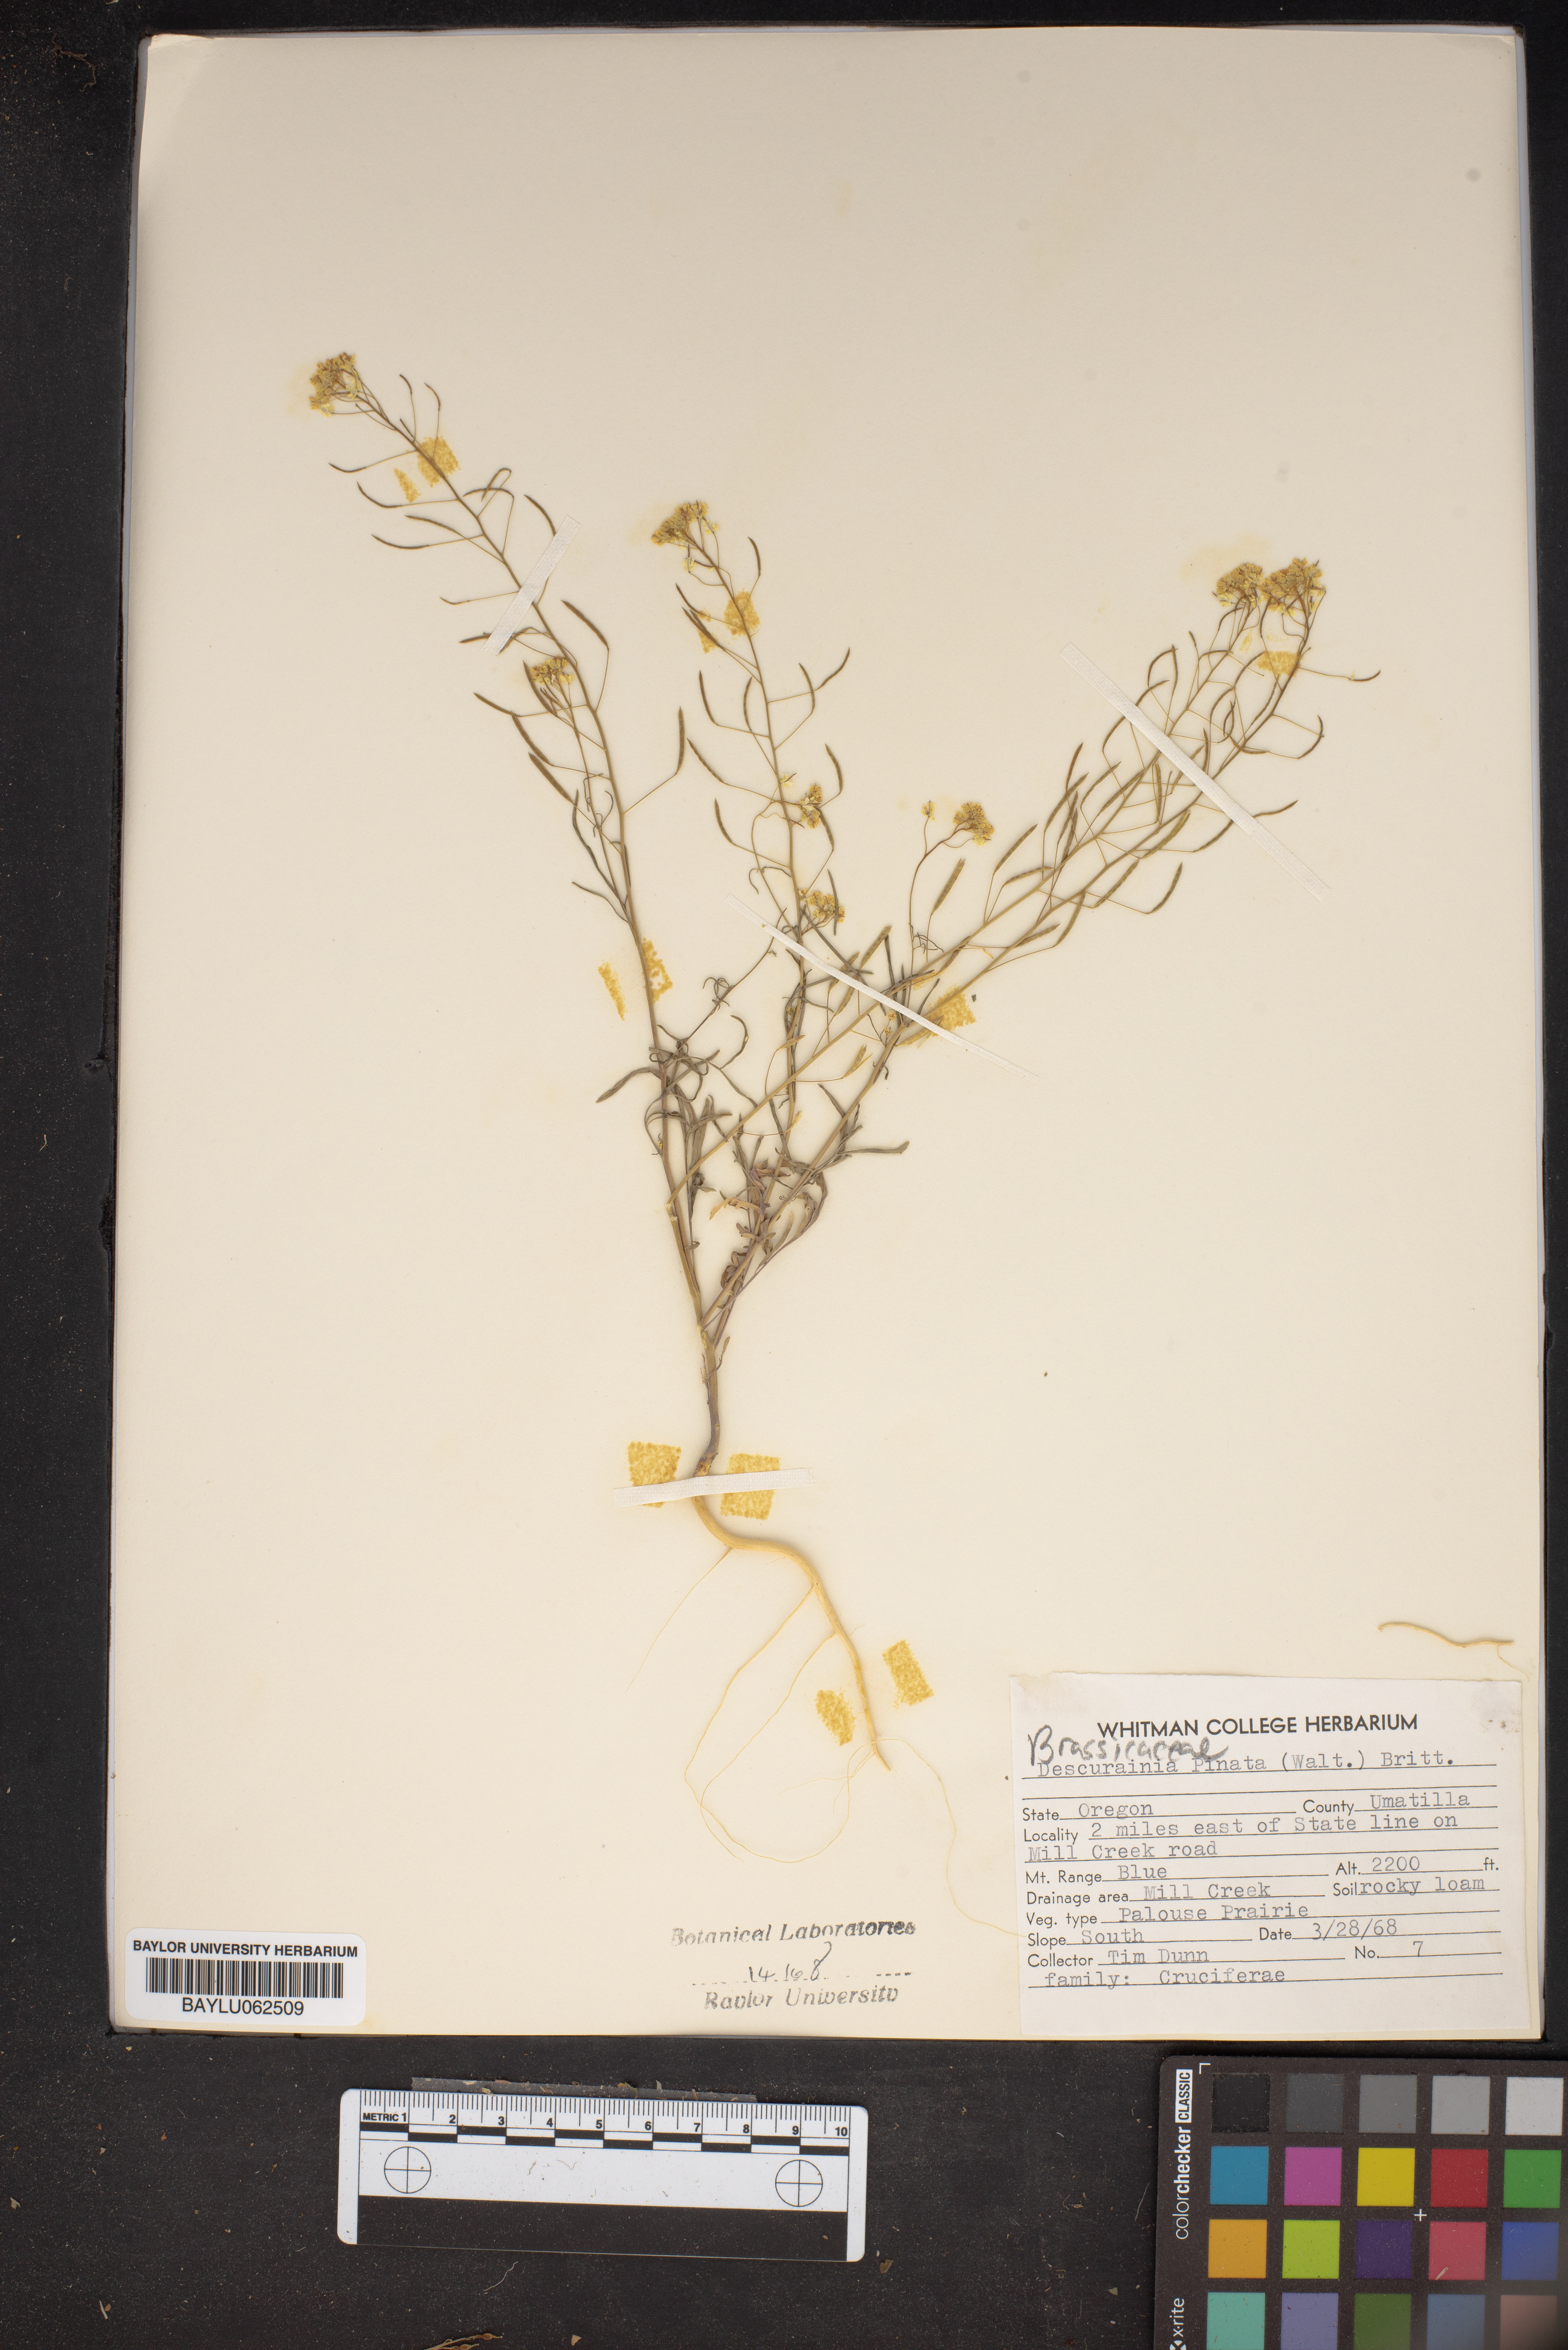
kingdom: Plantae
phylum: Tracheophyta
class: Magnoliopsida
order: Brassicales
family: Brassicaceae
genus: Descurainia
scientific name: Descurainia pinnata
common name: Western tansy mustard
